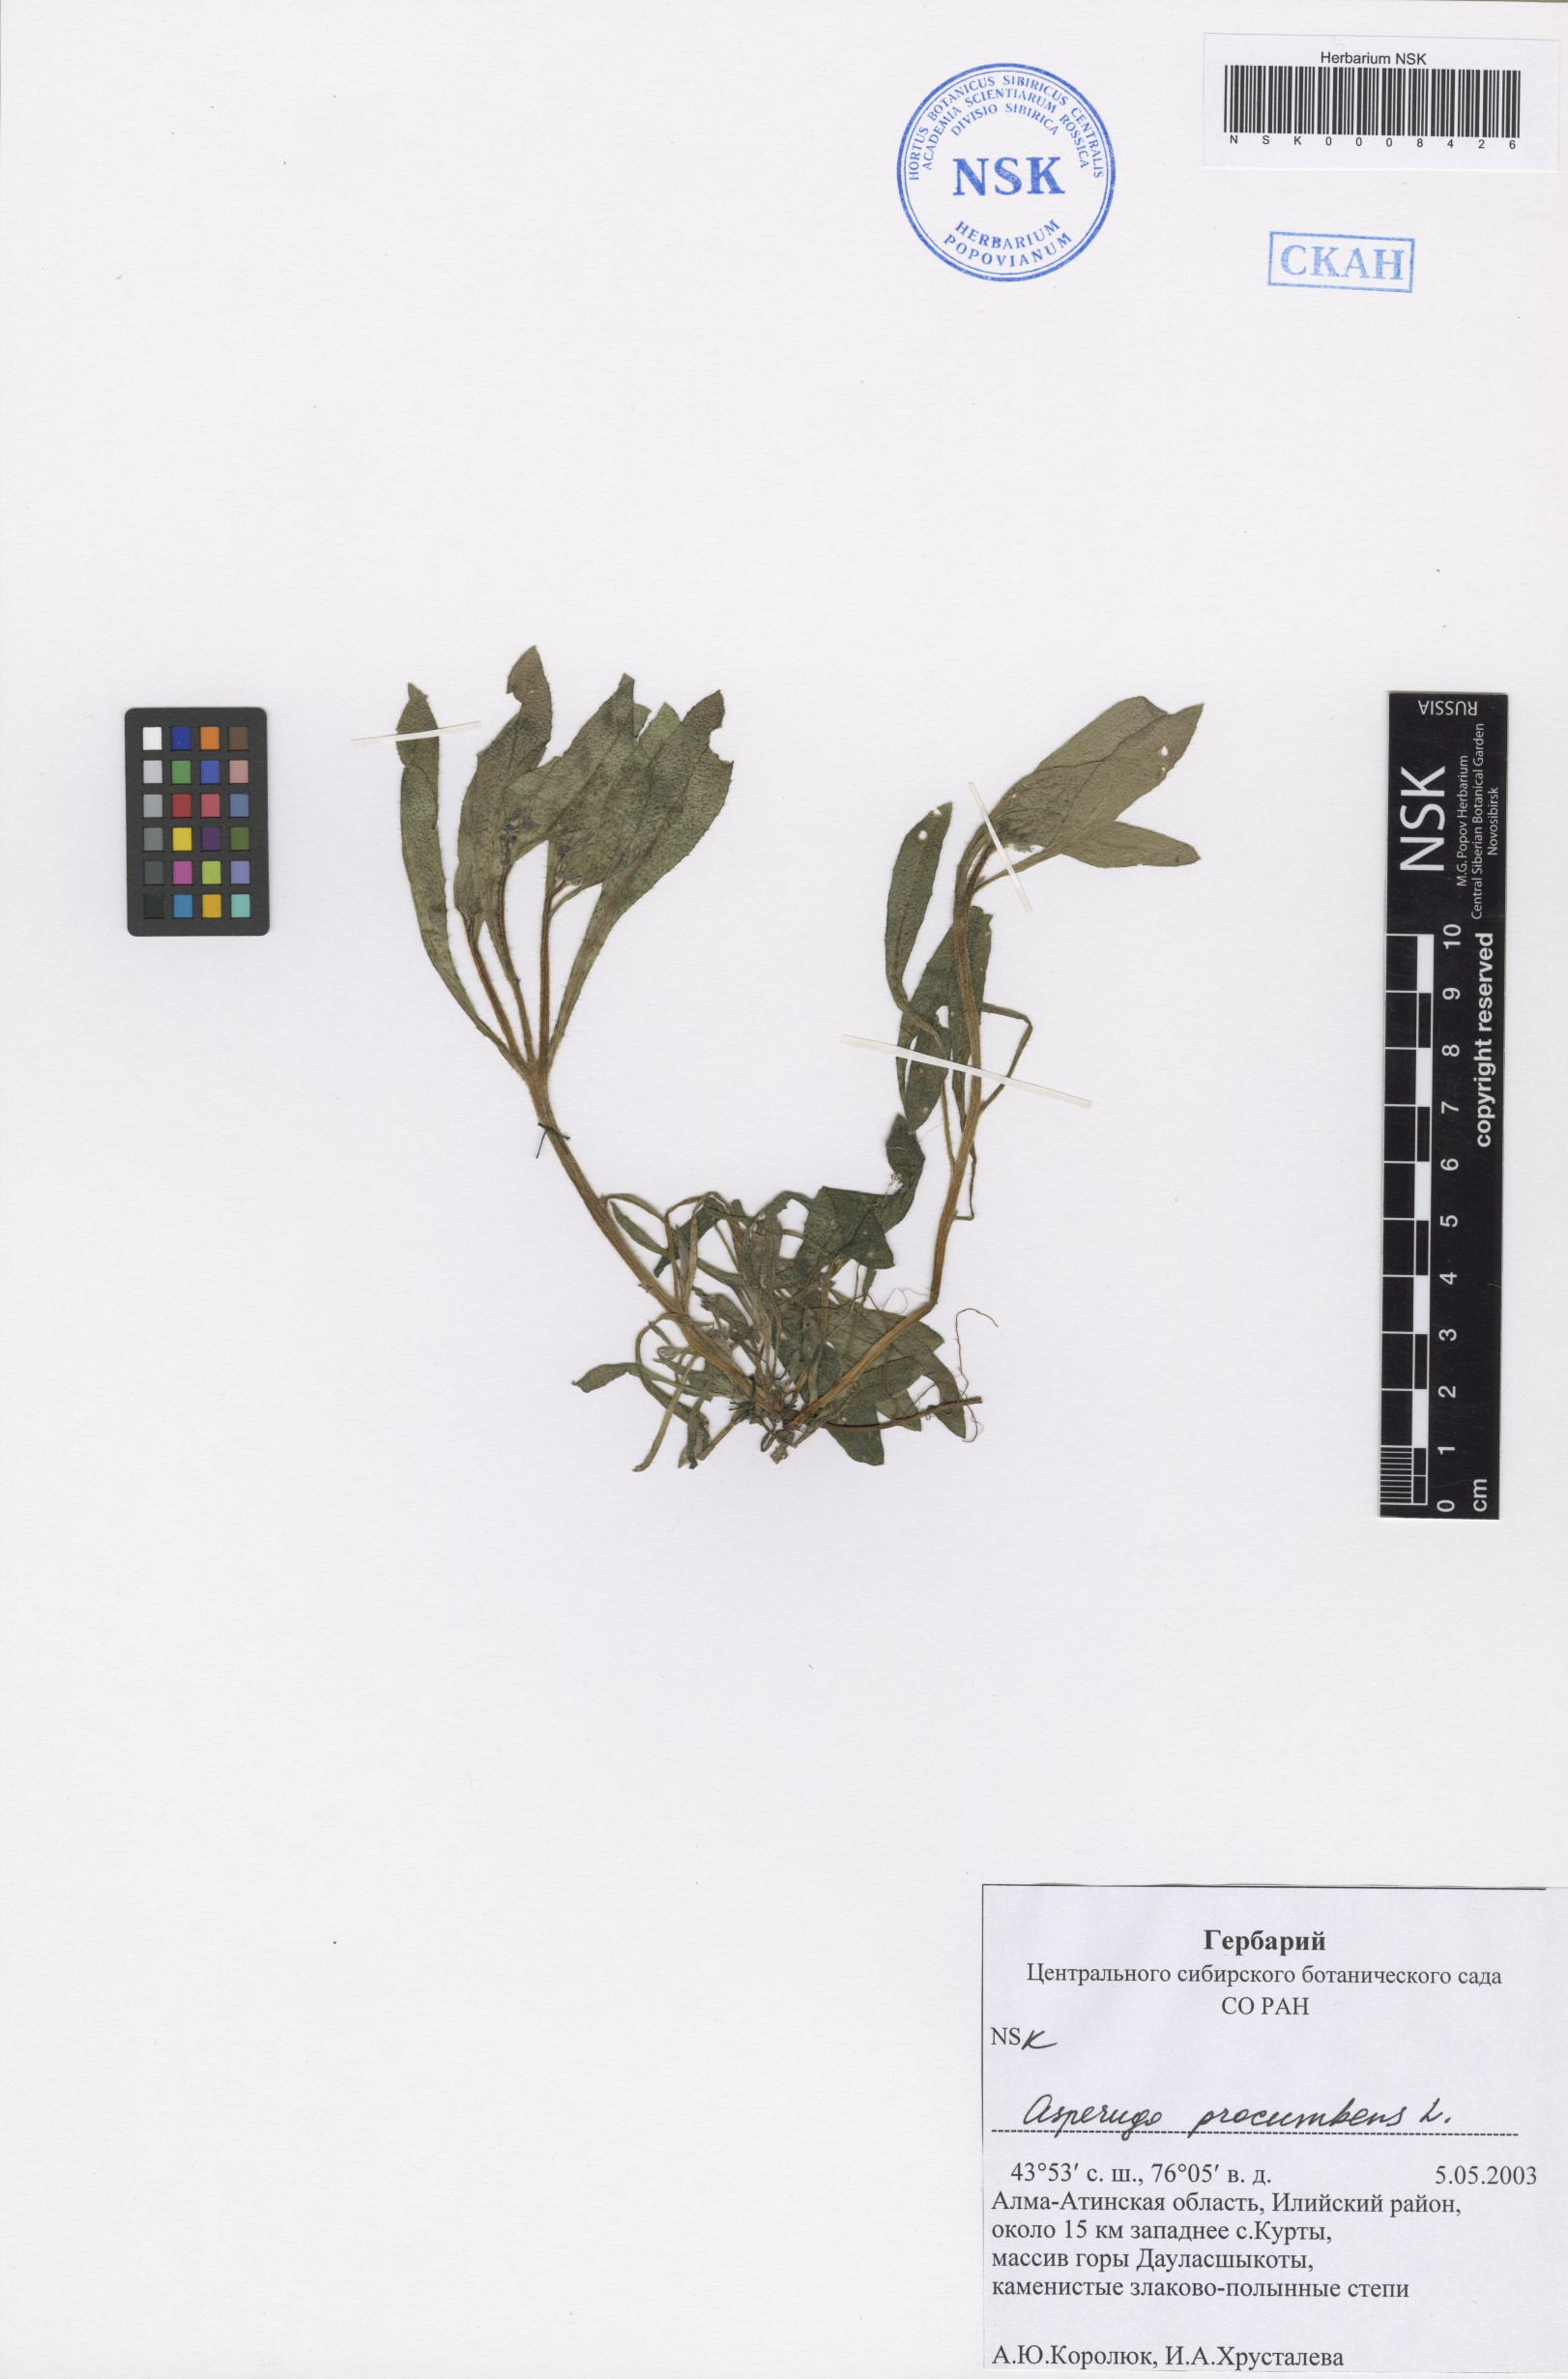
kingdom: Plantae
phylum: Tracheophyta
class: Magnoliopsida
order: Boraginales
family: Boraginaceae
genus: Asperugo
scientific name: Asperugo procumbens
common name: Madwort
